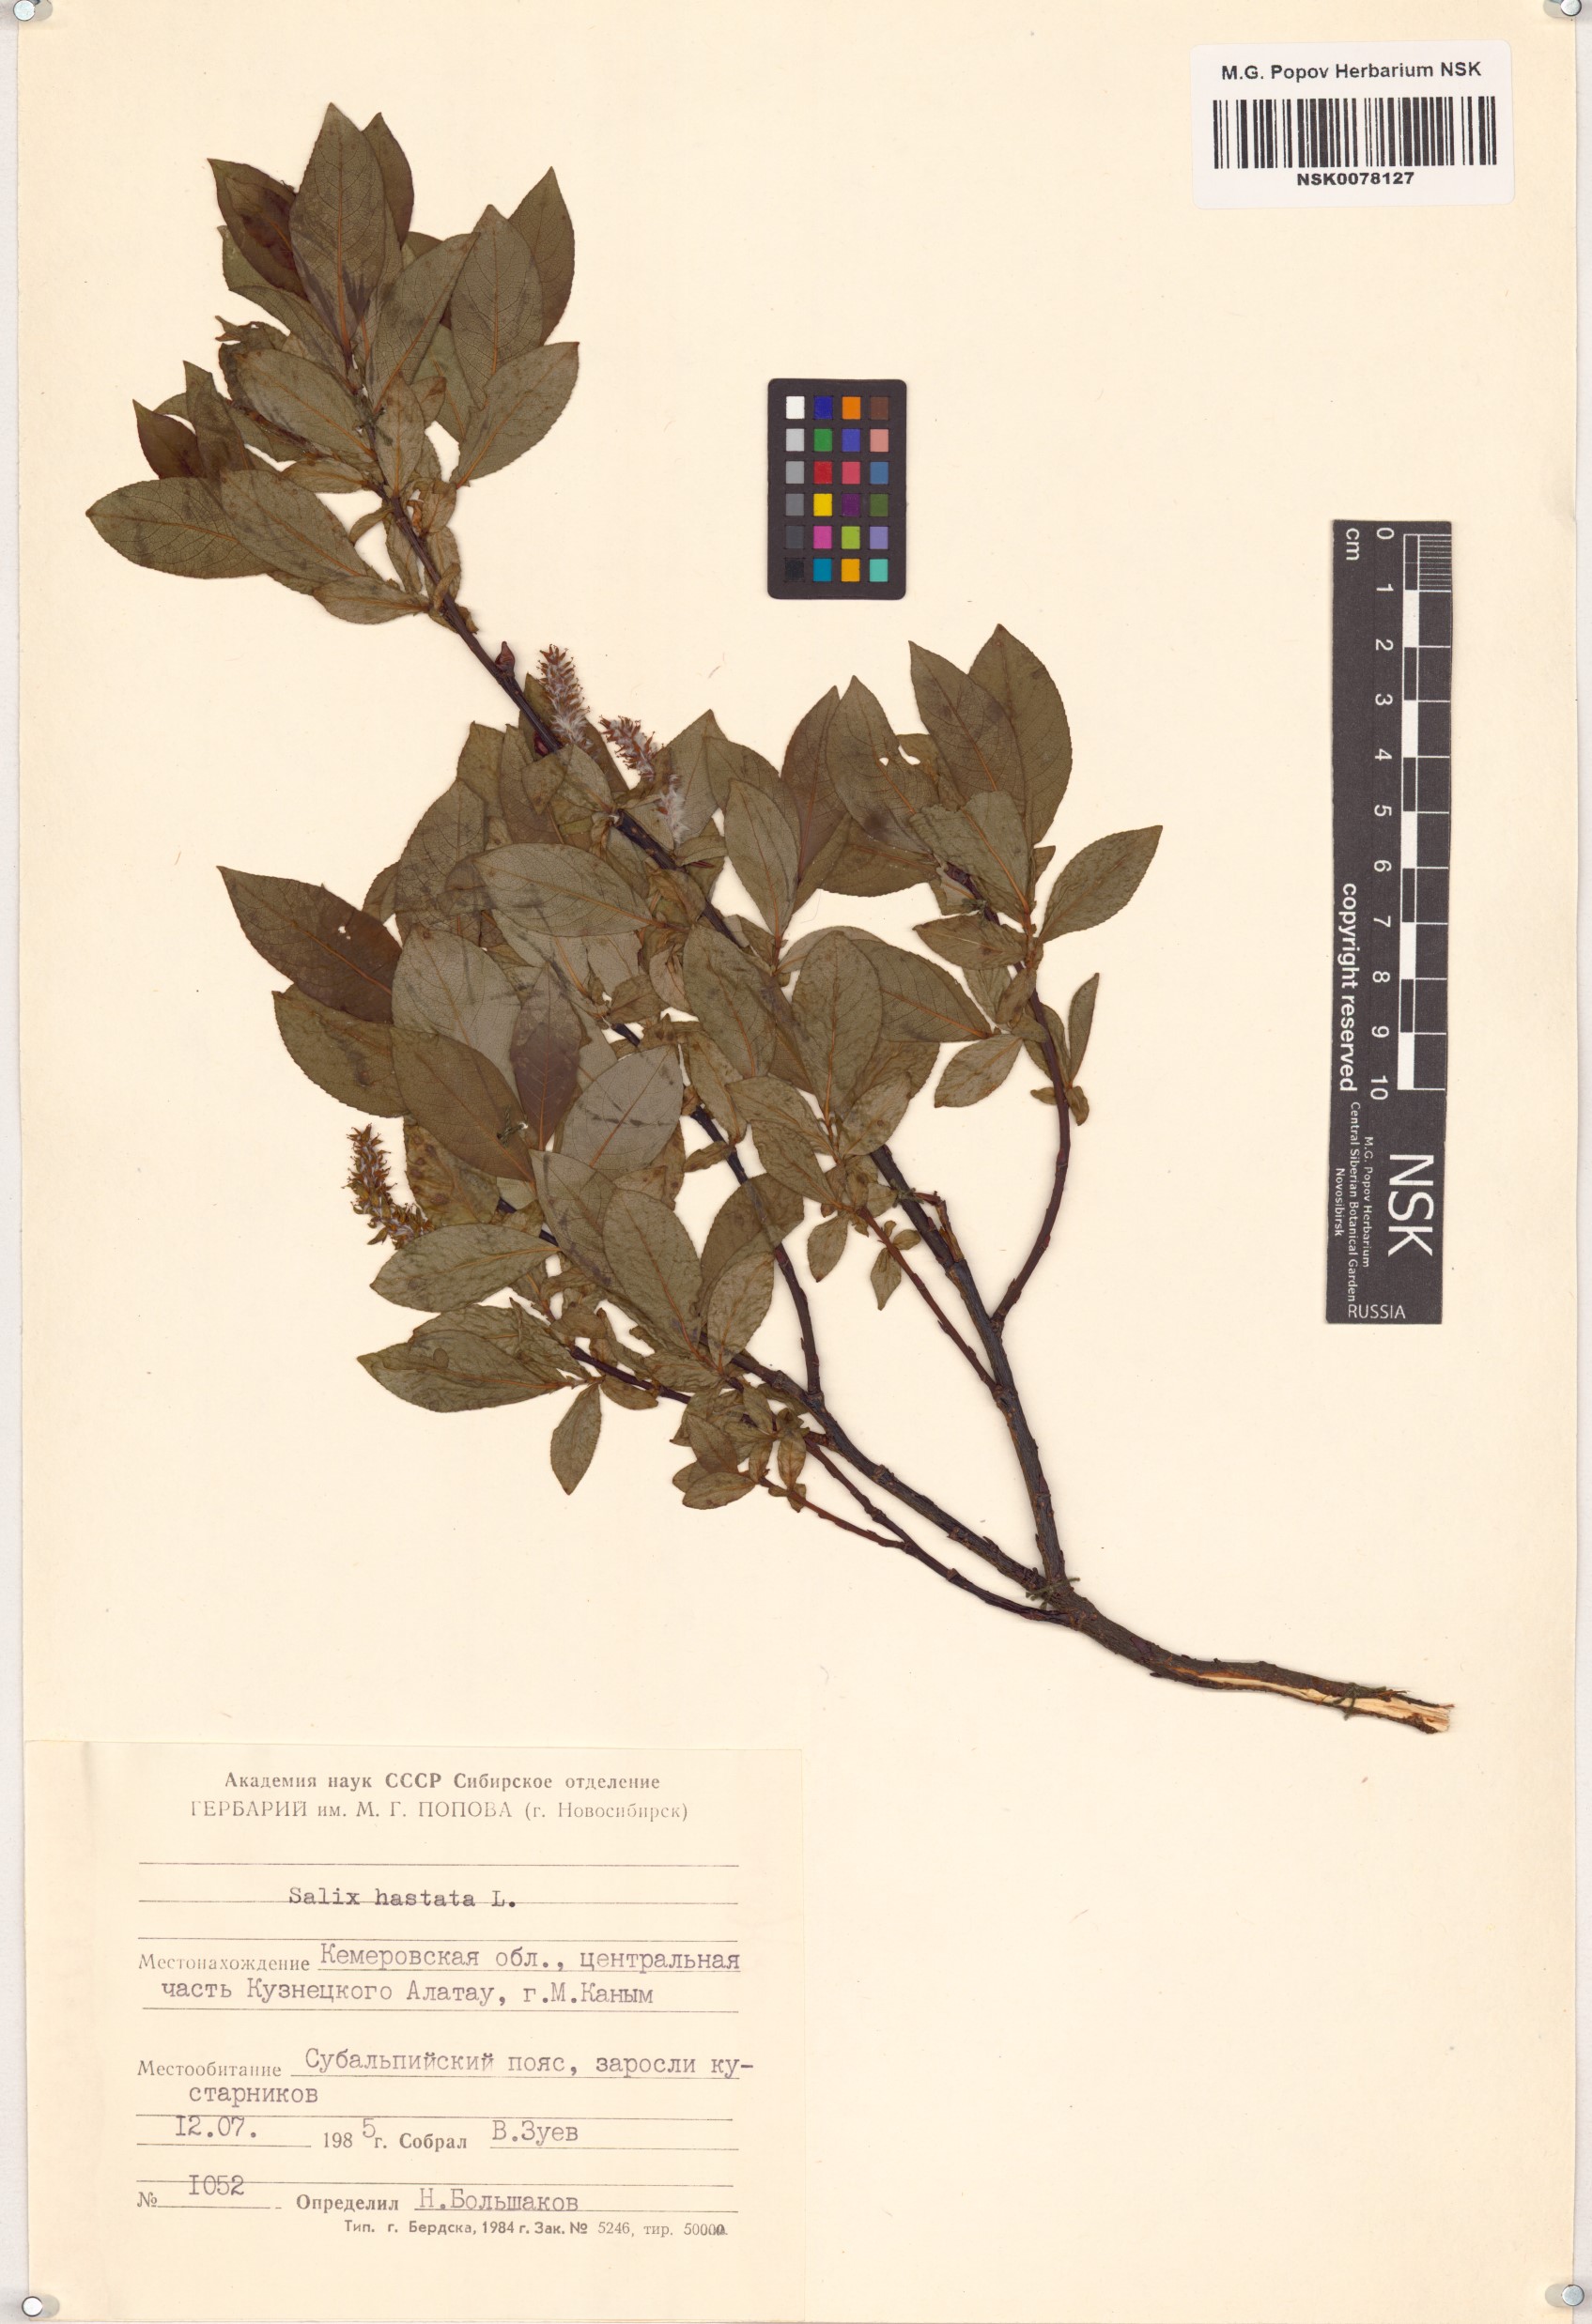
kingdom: Plantae
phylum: Tracheophyta
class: Magnoliopsida
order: Malpighiales
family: Salicaceae
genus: Salix
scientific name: Salix hastata
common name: Halberd willow
